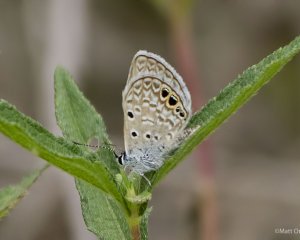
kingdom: Animalia
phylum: Arthropoda
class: Insecta
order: Lepidoptera
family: Lycaenidae
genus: Hemiargus
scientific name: Hemiargus ceraunus
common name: Ceraunus Blue
